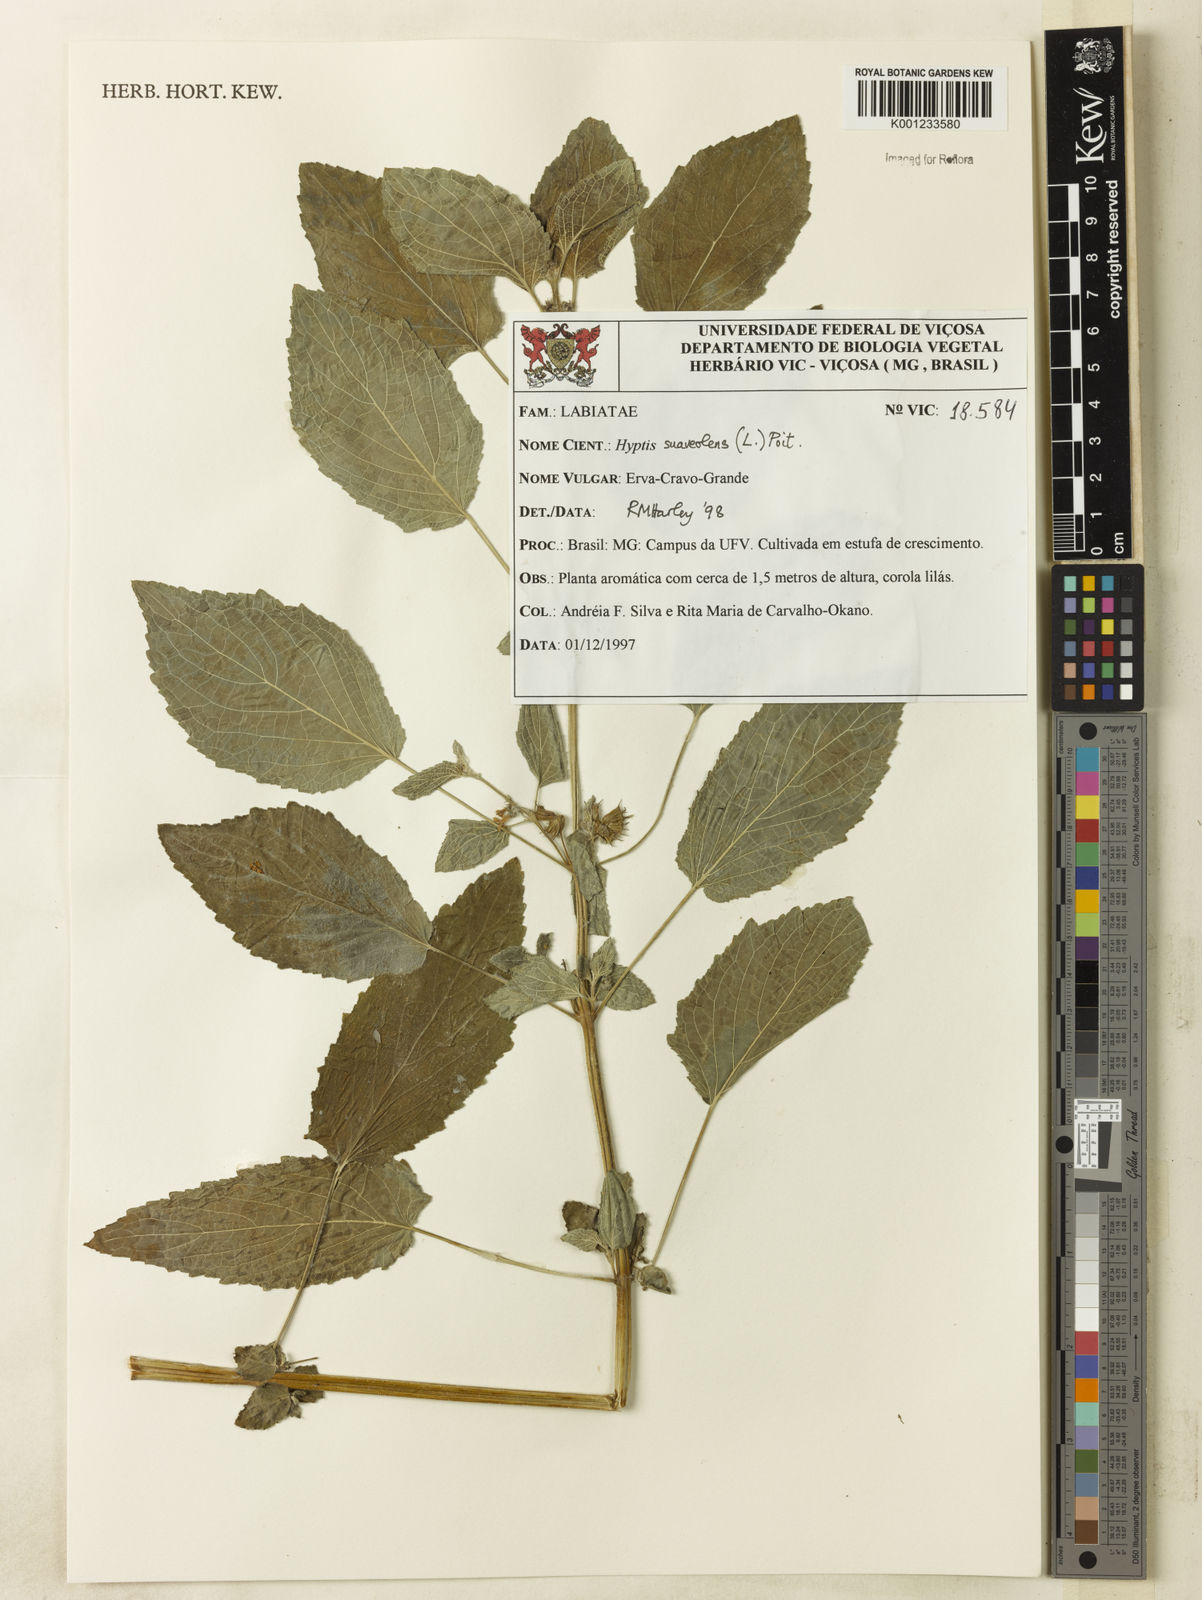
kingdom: Plantae
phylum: Tracheophyta
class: Magnoliopsida
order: Lamiales
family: Lamiaceae
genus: Mesosphaerum
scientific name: Mesosphaerum suaveolens
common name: Pignut
